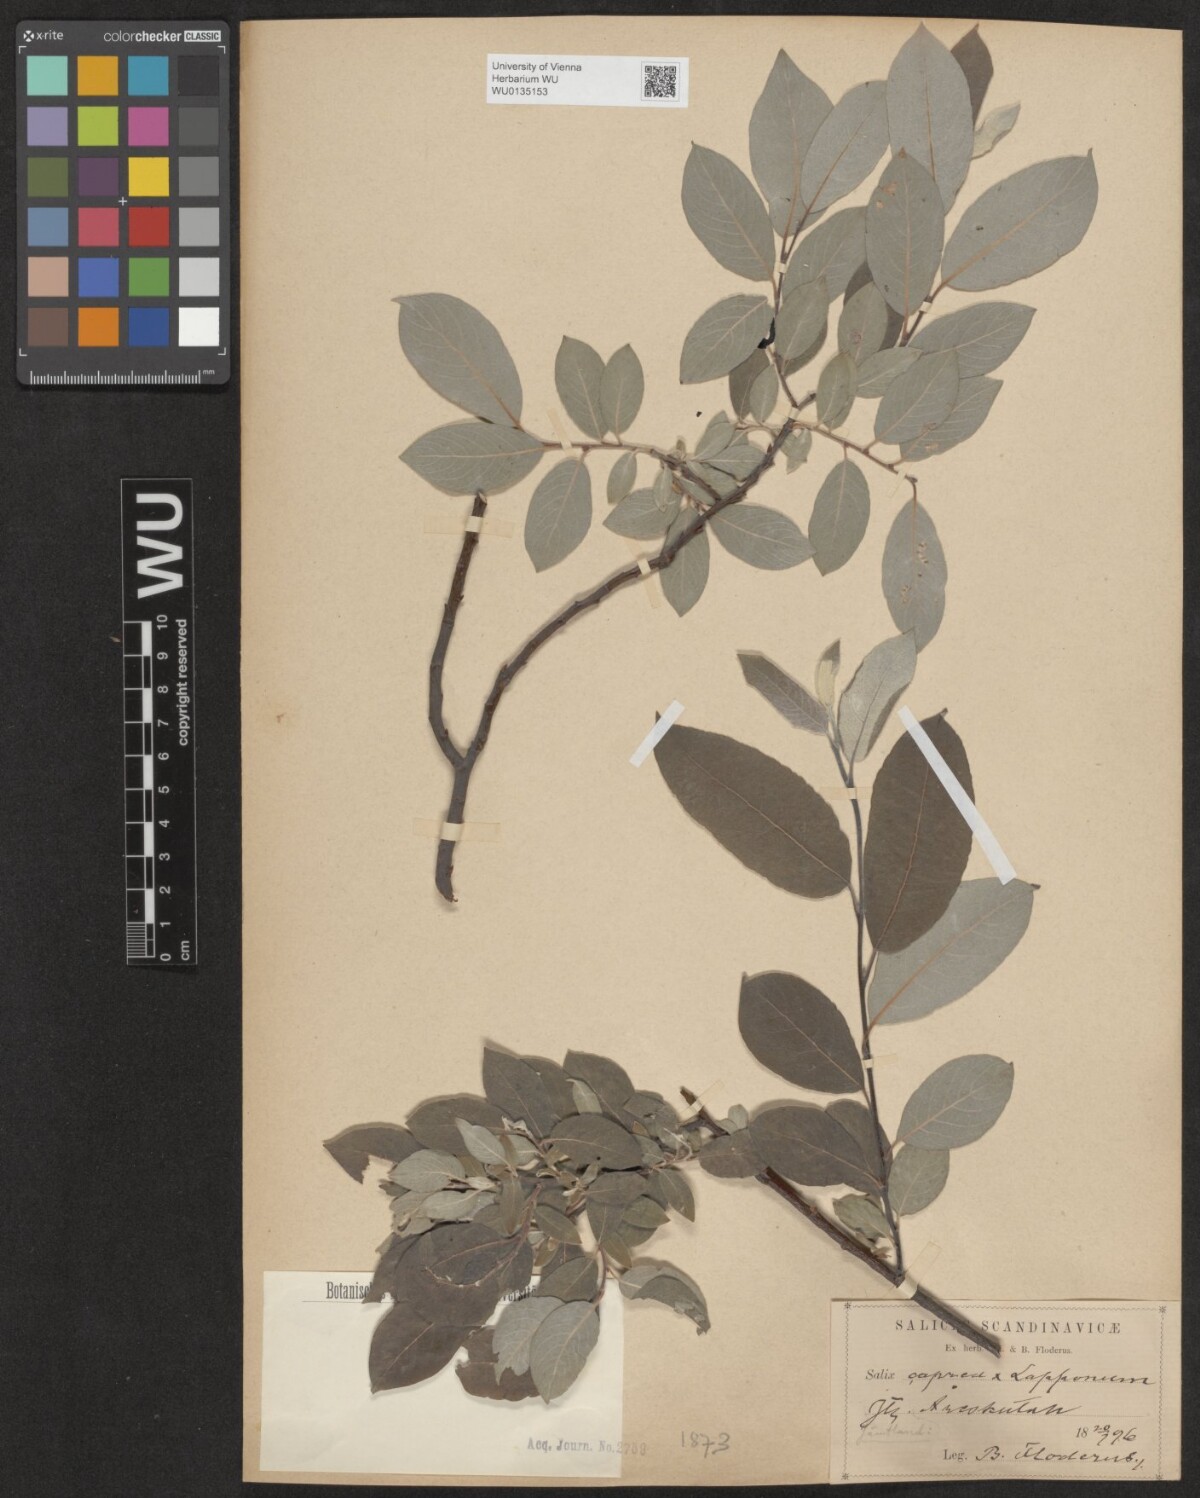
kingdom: Plantae
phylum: Tracheophyta
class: Magnoliopsida
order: Malpighiales
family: Salicaceae
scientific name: Salicaceae
